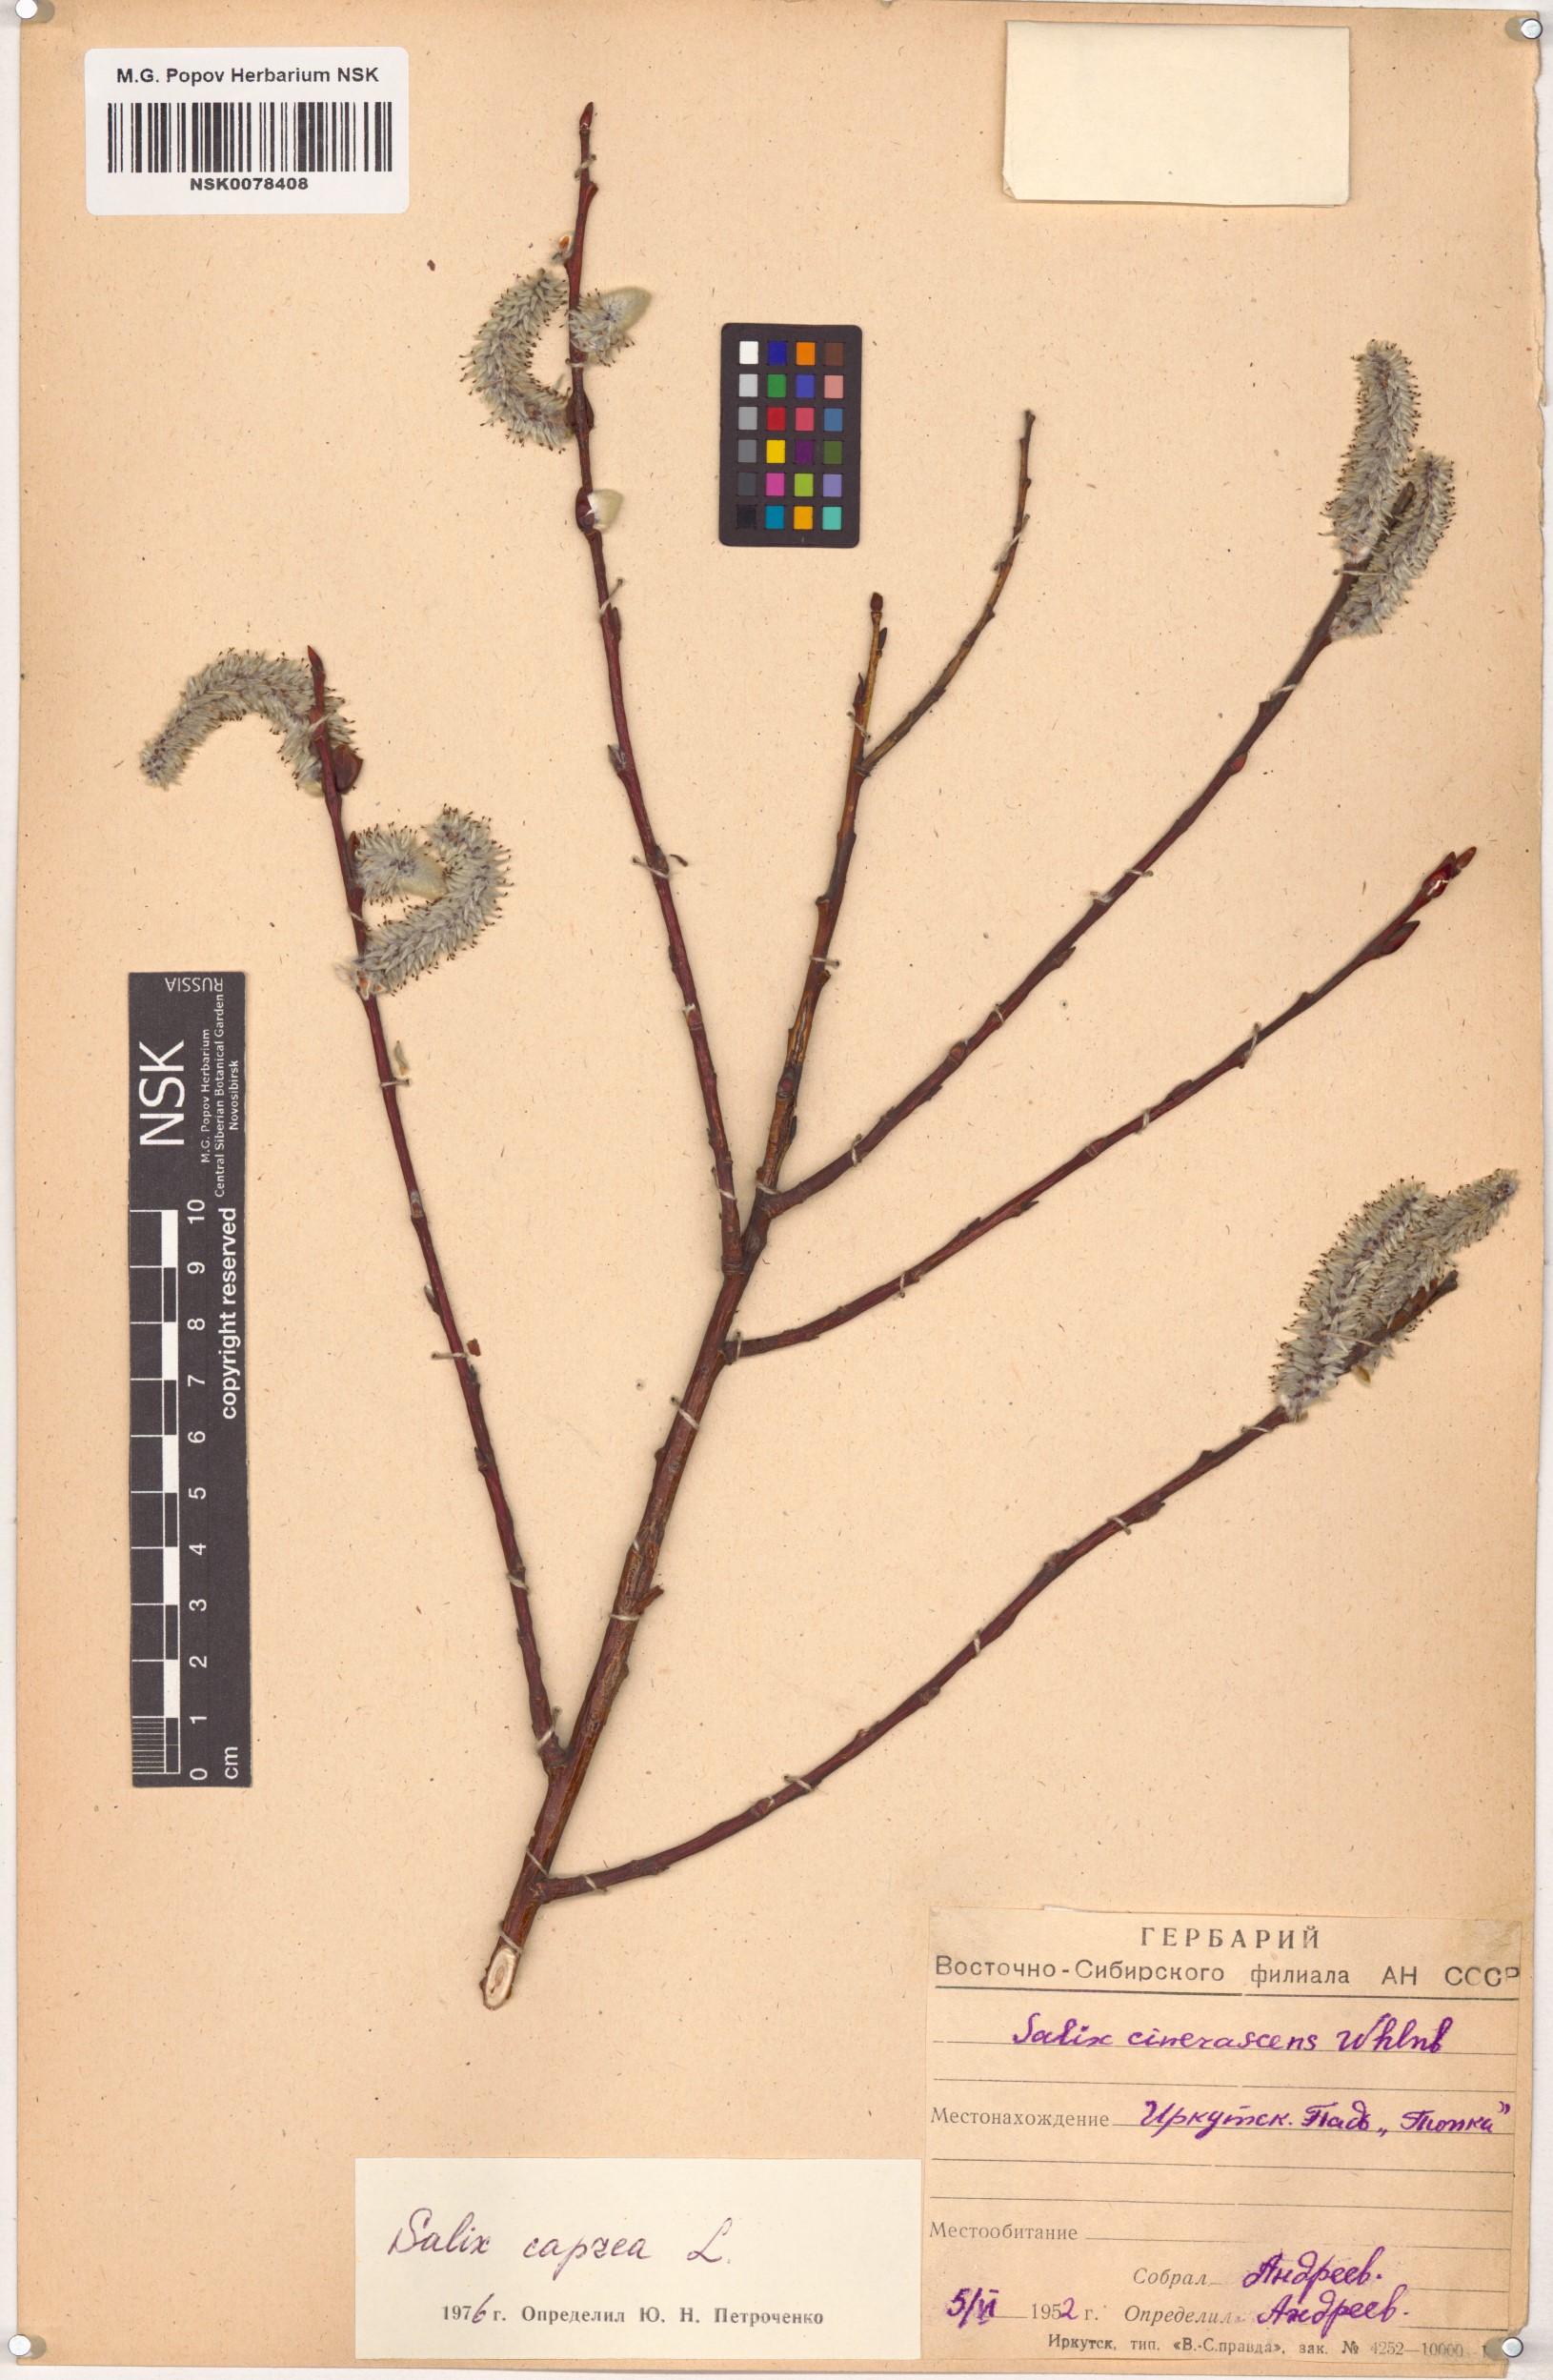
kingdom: Plantae
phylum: Tracheophyta
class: Magnoliopsida
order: Malpighiales
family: Salicaceae
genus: Salix
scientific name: Salix caprea
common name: Goat willow
